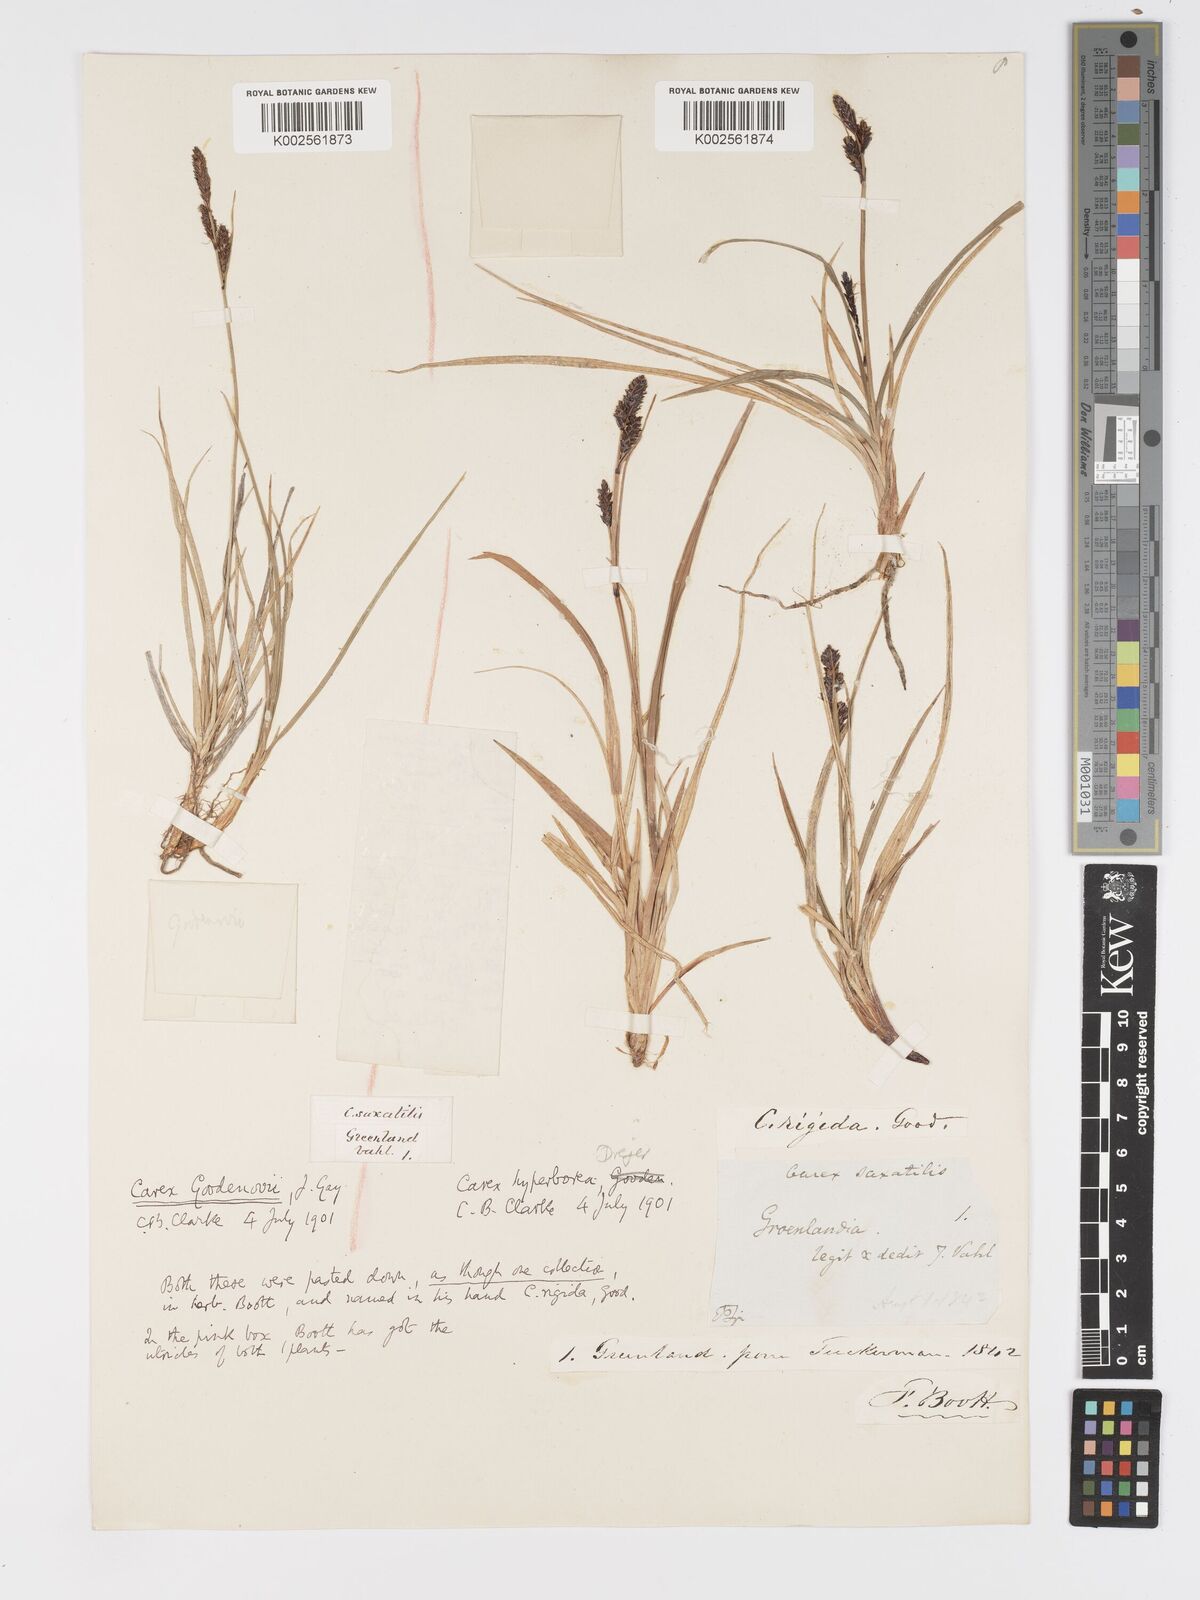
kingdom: Plantae
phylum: Tracheophyta
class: Liliopsida
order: Poales
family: Cyperaceae
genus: Carex
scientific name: Carex bigelowii
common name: Stiff sedge
